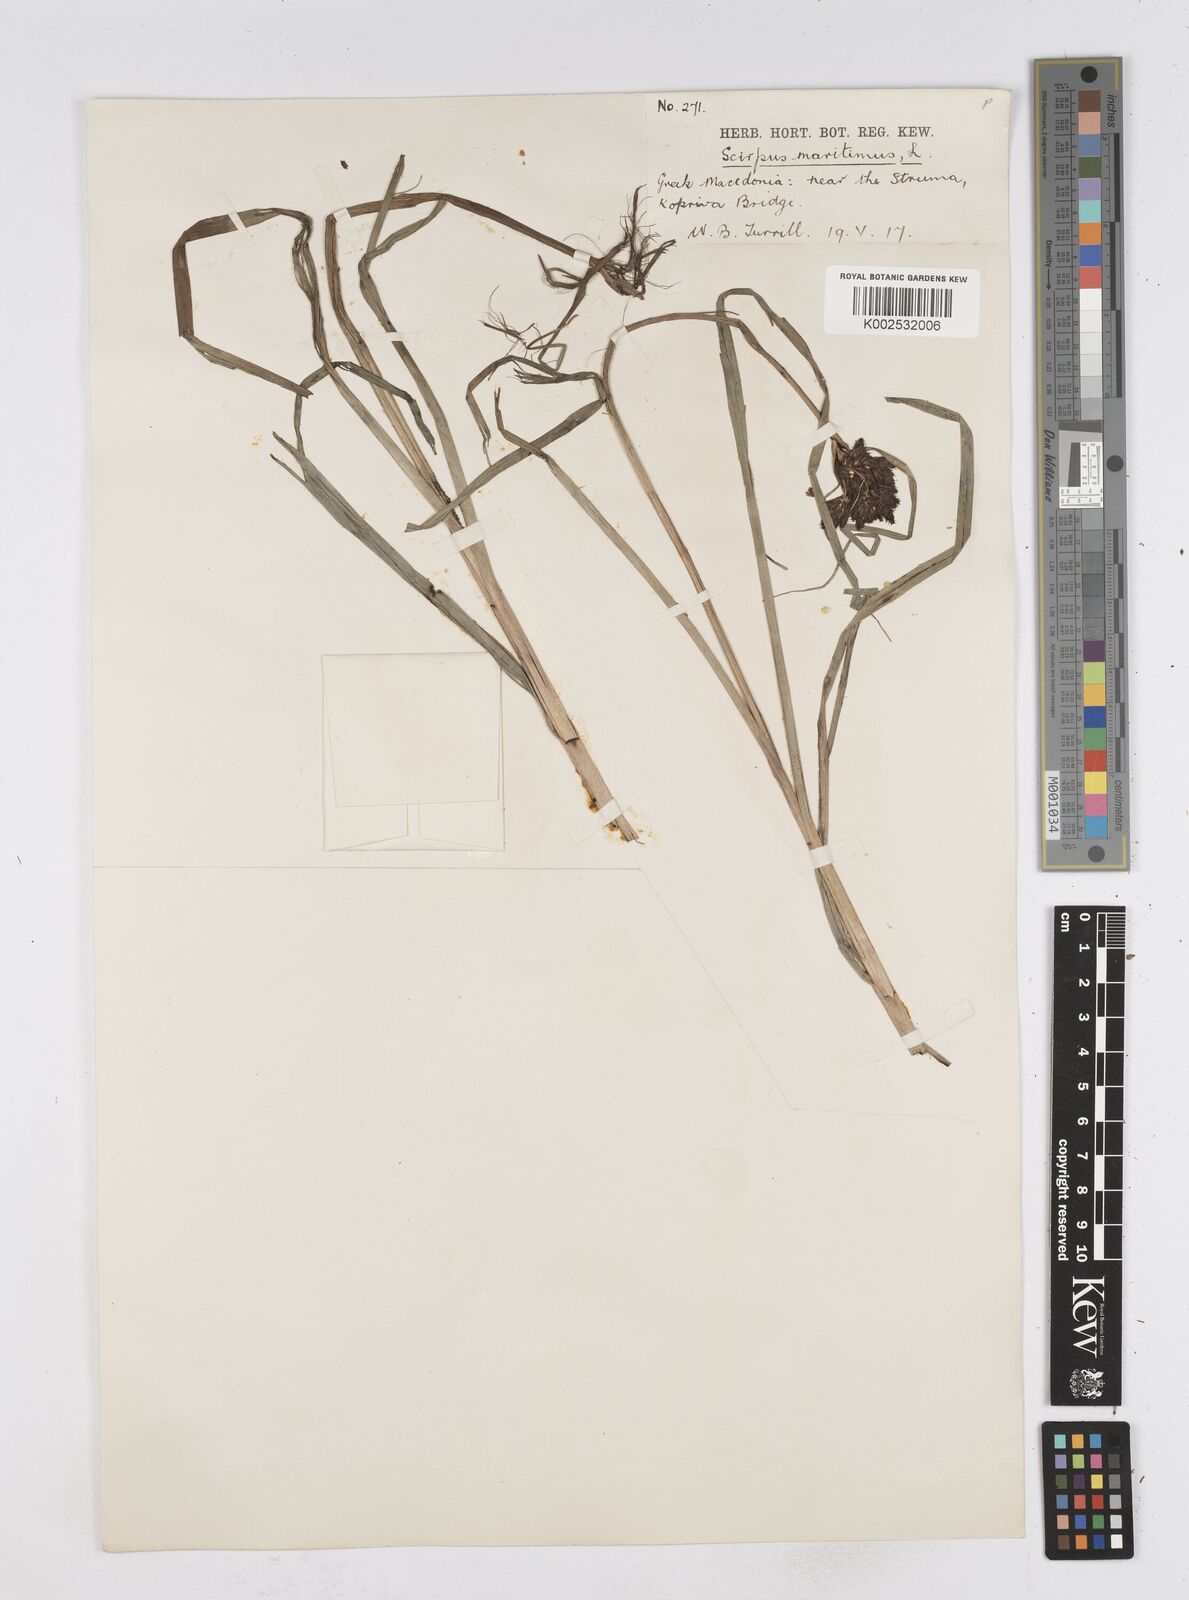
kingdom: Plantae
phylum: Tracheophyta
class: Liliopsida
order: Poales
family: Cyperaceae
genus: Bolboschoenus
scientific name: Bolboschoenus maritimus
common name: Sea club-rush
